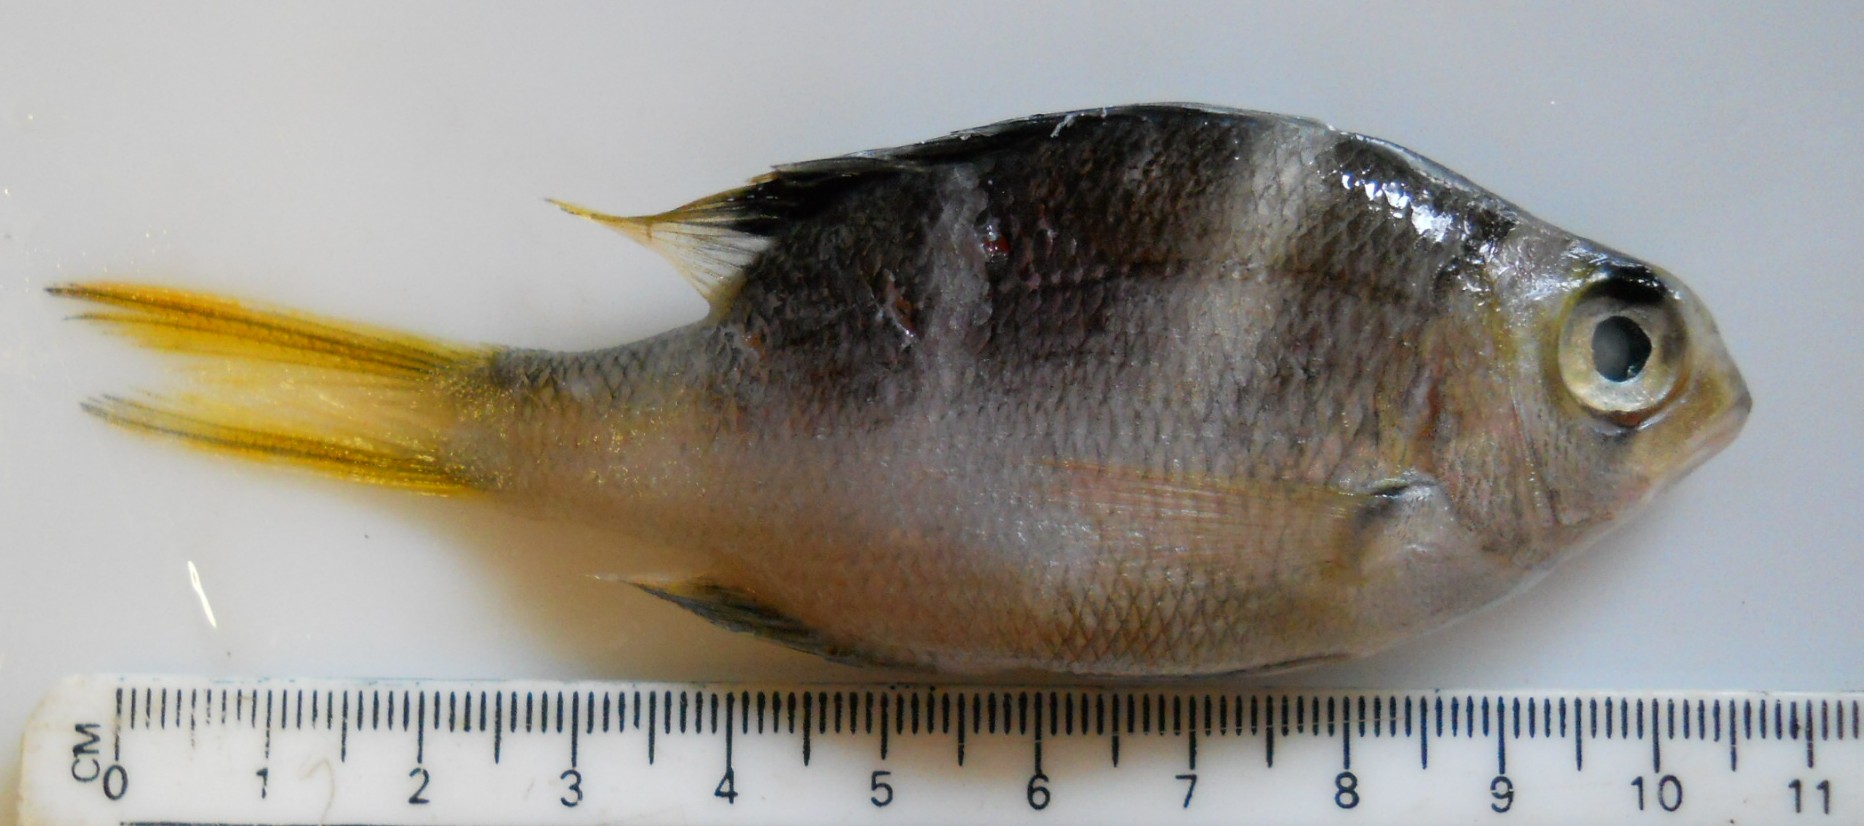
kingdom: Animalia
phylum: Chordata
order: Perciformes
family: Lethrinidae
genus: Monotaxis
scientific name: Monotaxis grandoculis
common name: Bigeye emperor
